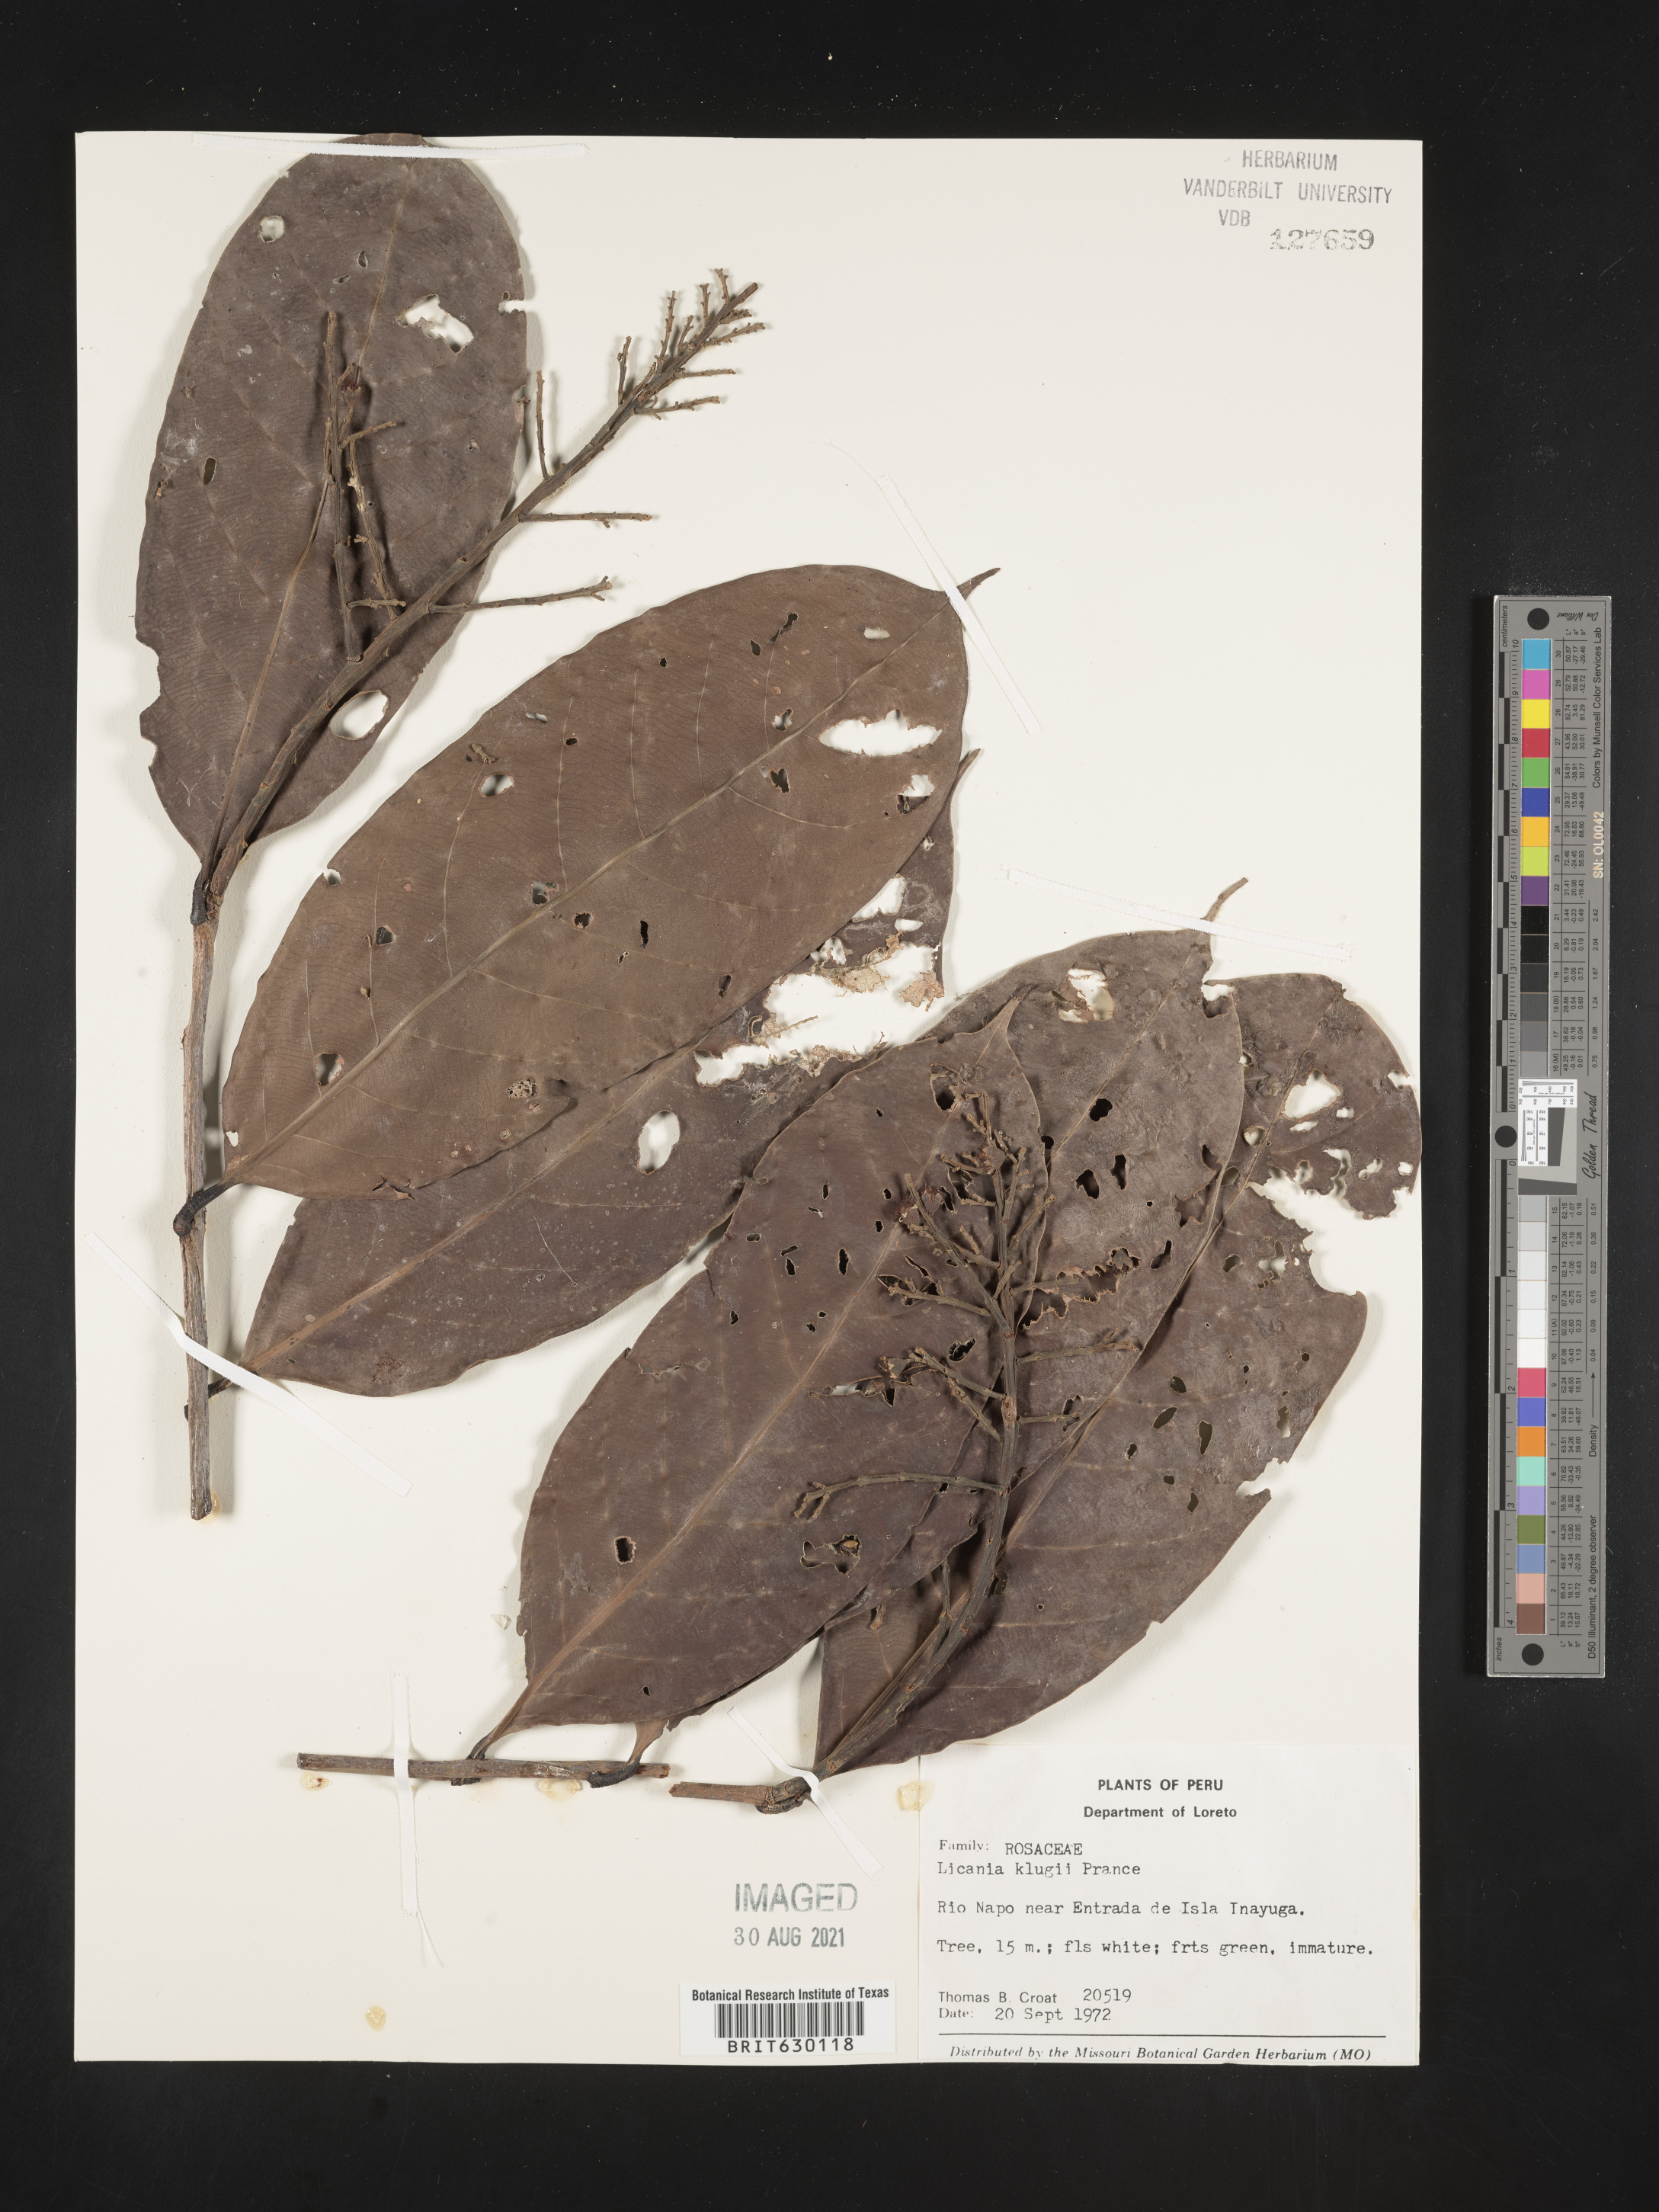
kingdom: Plantae
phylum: Tracheophyta
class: Magnoliopsida
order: Malpighiales
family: Chrysobalanaceae
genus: Moquilea
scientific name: Moquilea klugii
